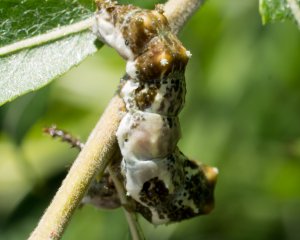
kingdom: Animalia
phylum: Arthropoda
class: Insecta
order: Lepidoptera
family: Nymphalidae
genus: Limenitis
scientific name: Limenitis archippus
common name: Viceroy
